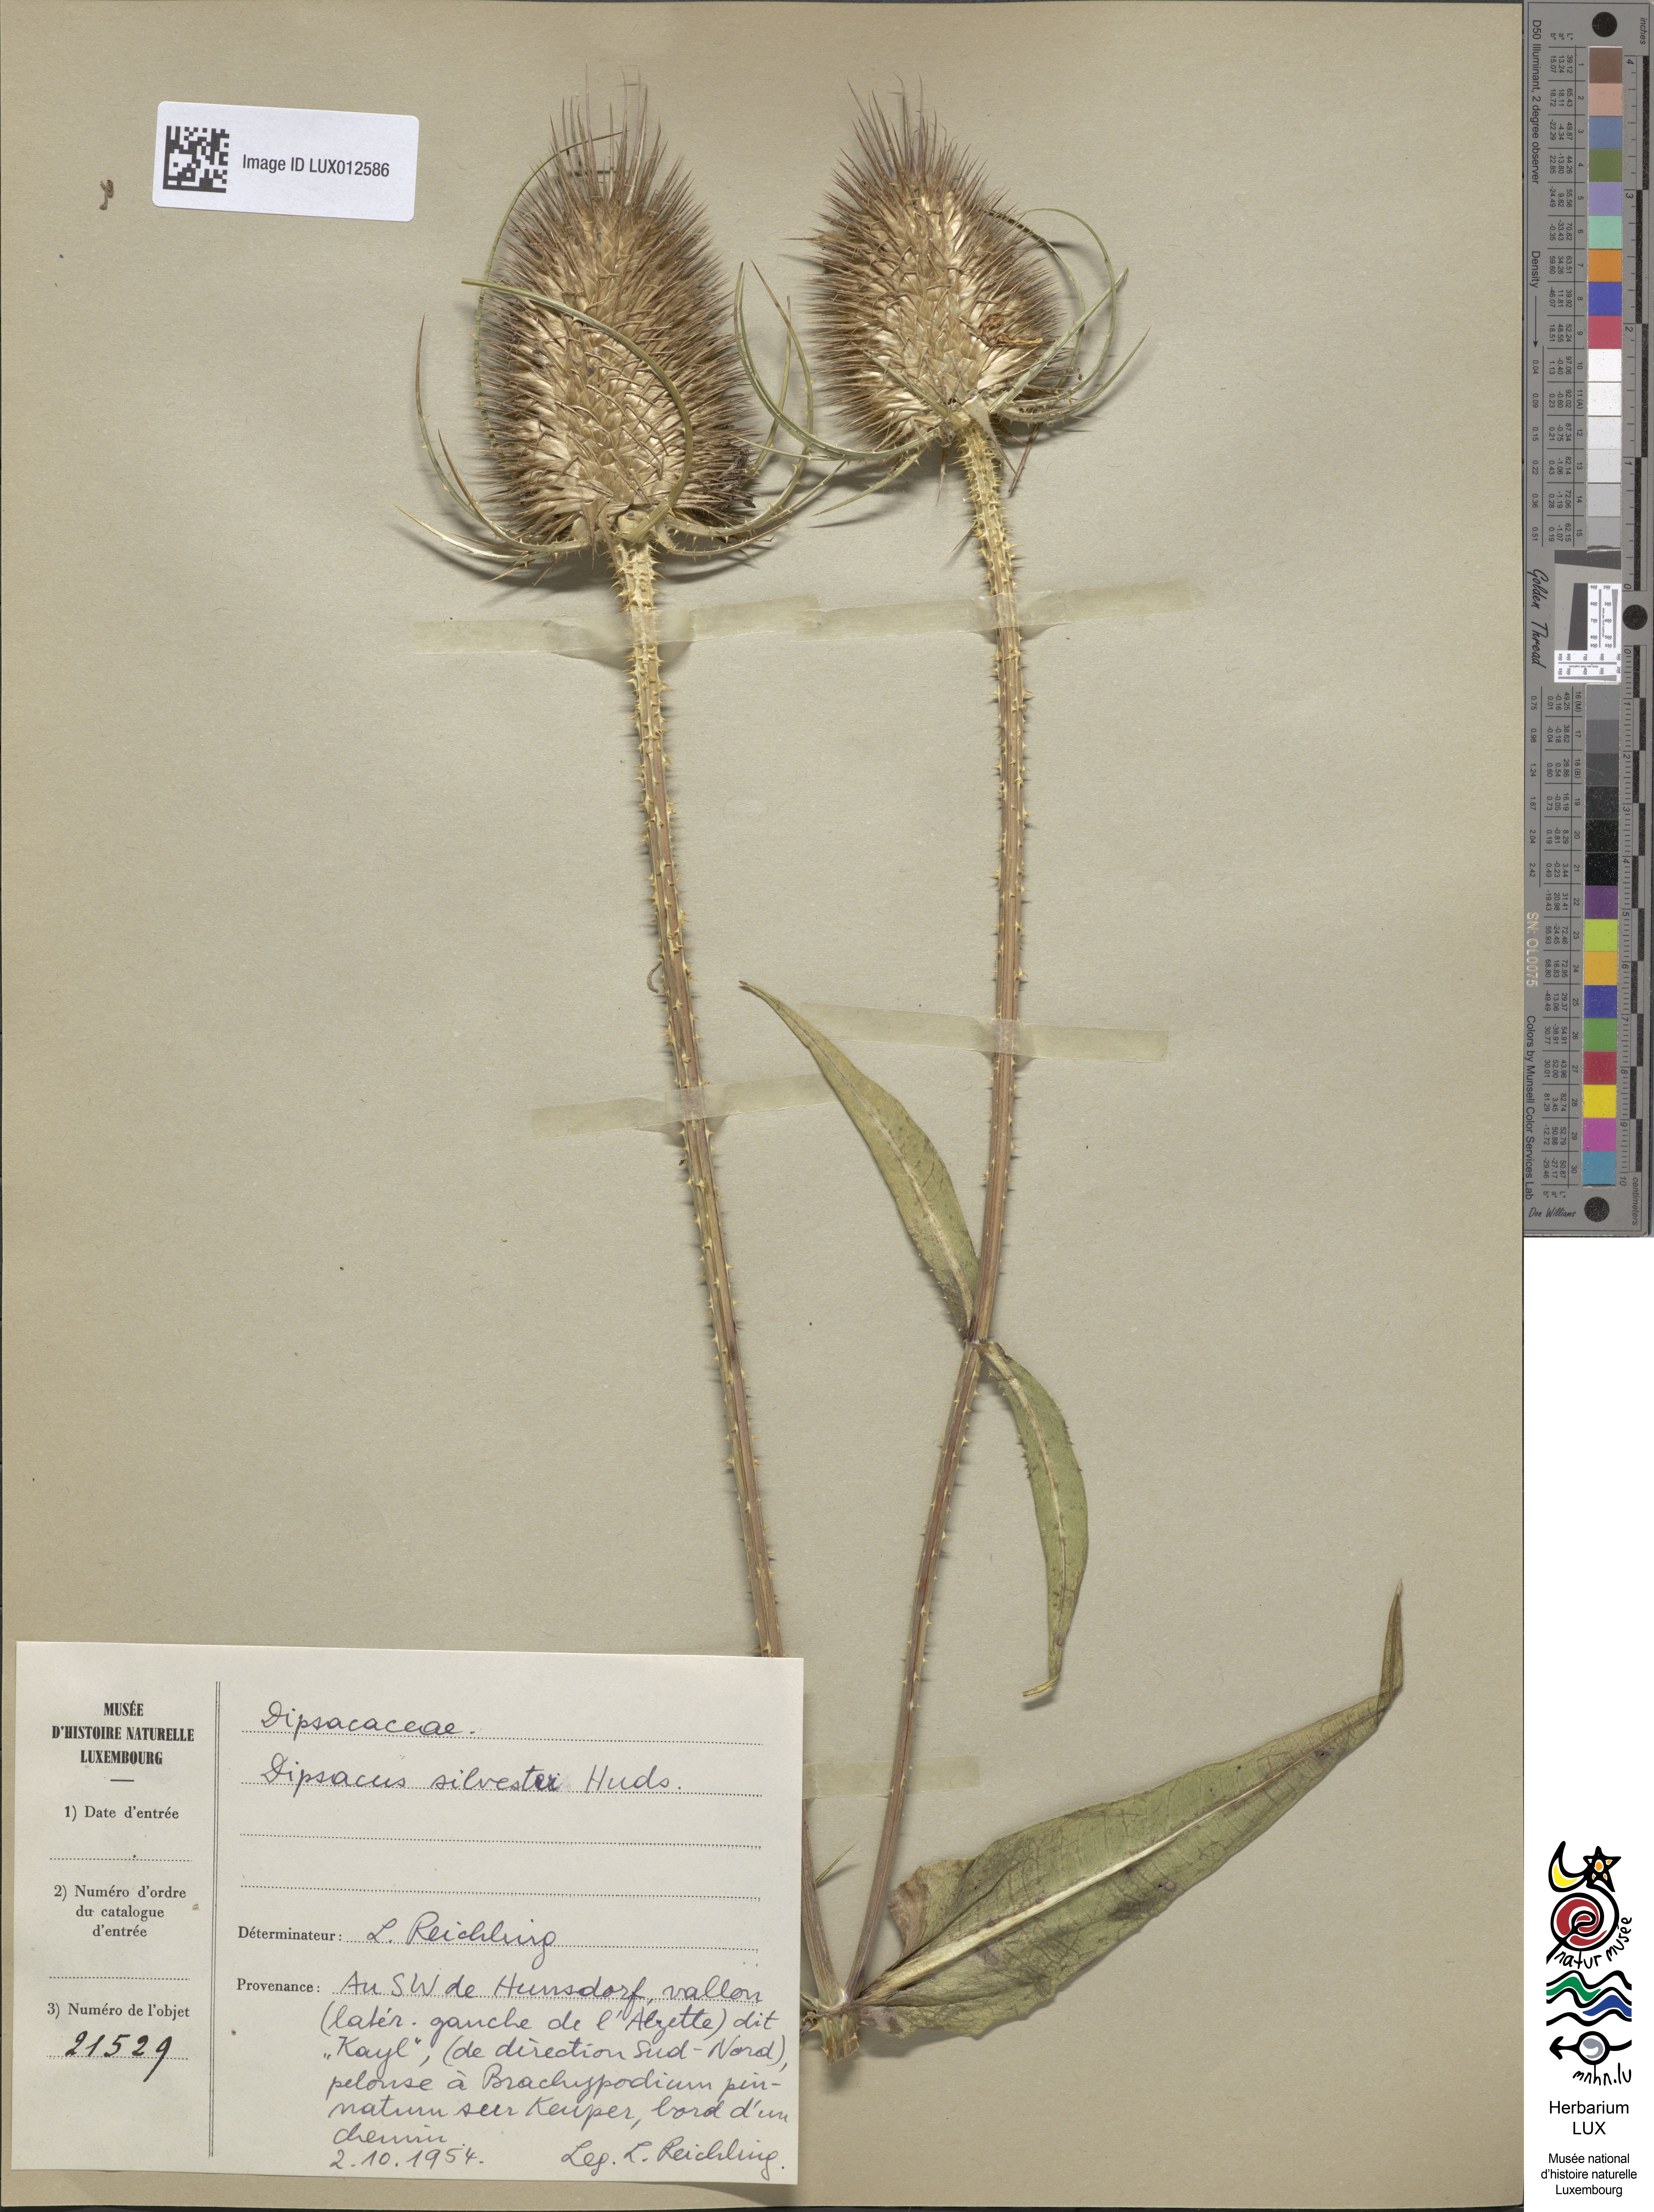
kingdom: Plantae
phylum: Tracheophyta
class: Magnoliopsida
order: Dipsacales
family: Caprifoliaceae
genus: Dipsacus
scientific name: Dipsacus fullonum
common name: Teasel
